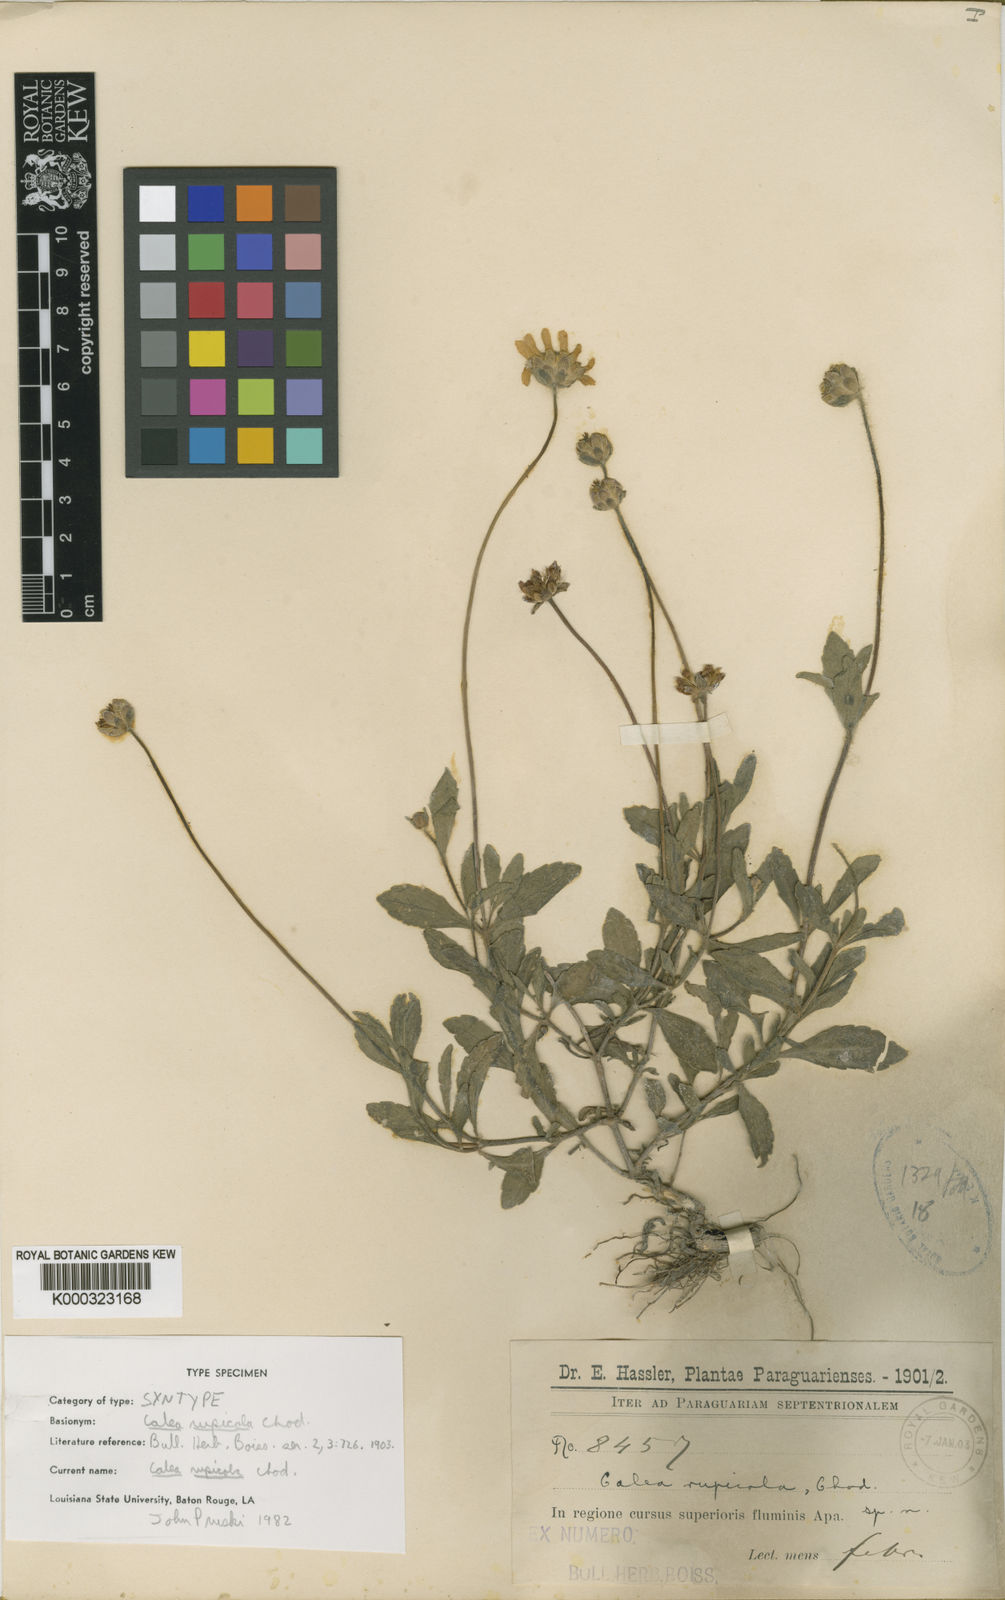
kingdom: Plantae
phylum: Tracheophyta
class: Magnoliopsida
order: Asterales
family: Asteraceae
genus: Calea
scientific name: Calea rupicola
